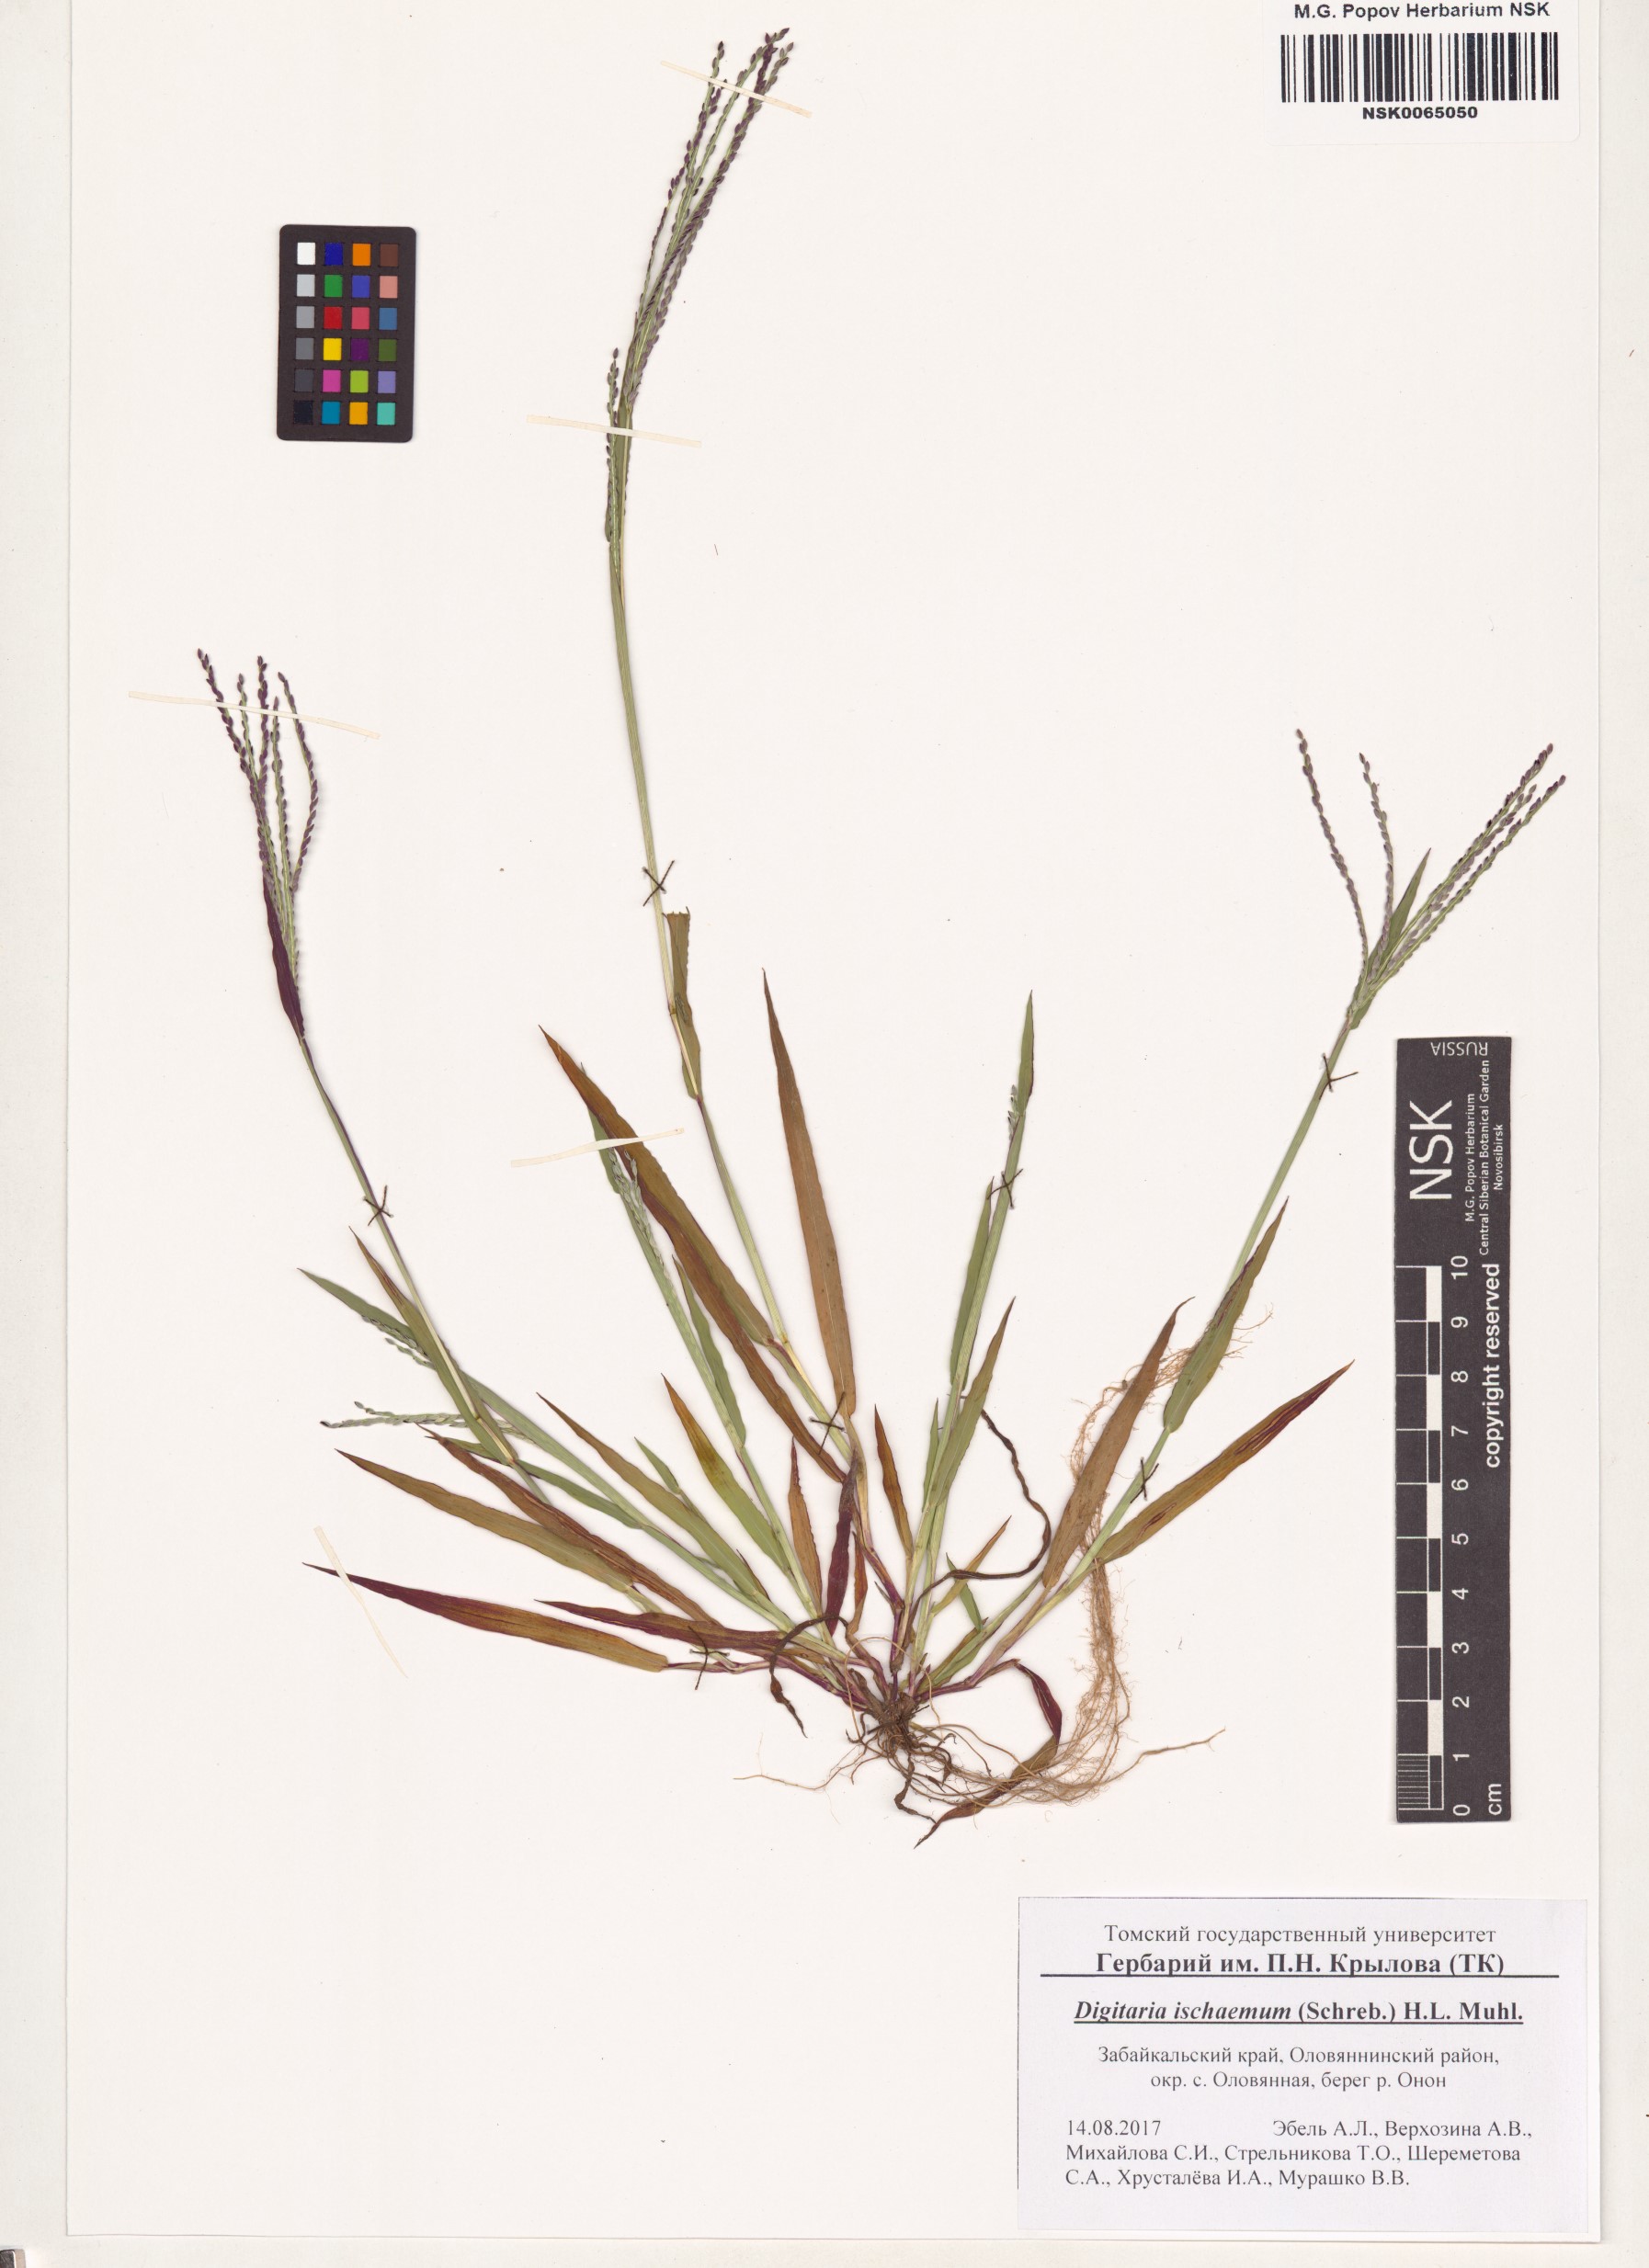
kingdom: Plantae
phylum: Tracheophyta
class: Liliopsida
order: Poales
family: Poaceae
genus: Digitaria
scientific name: Digitaria ischaemum
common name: Smooth crabgrass
